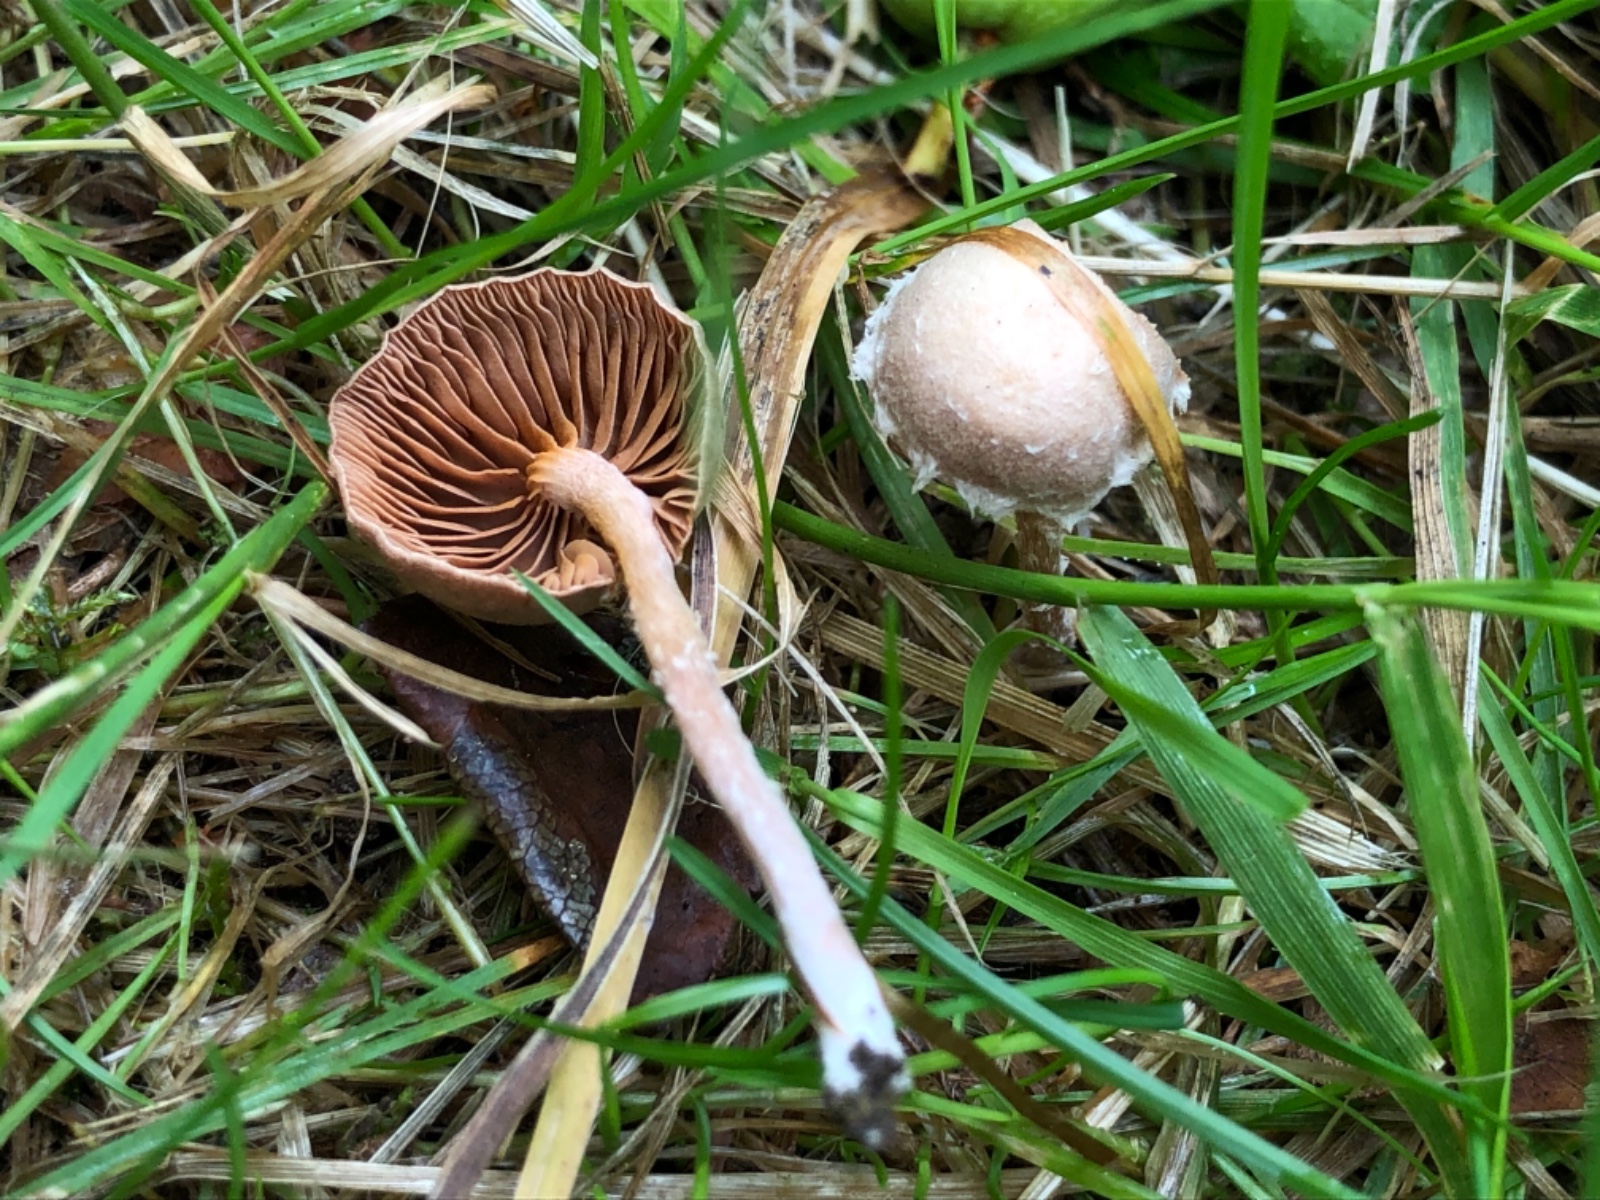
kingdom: Fungi
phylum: Basidiomycota
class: Agaricomycetes
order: Agaricales
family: Tubariaceae
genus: Tubaria
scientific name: Tubaria conspersa
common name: bleg fnughat
